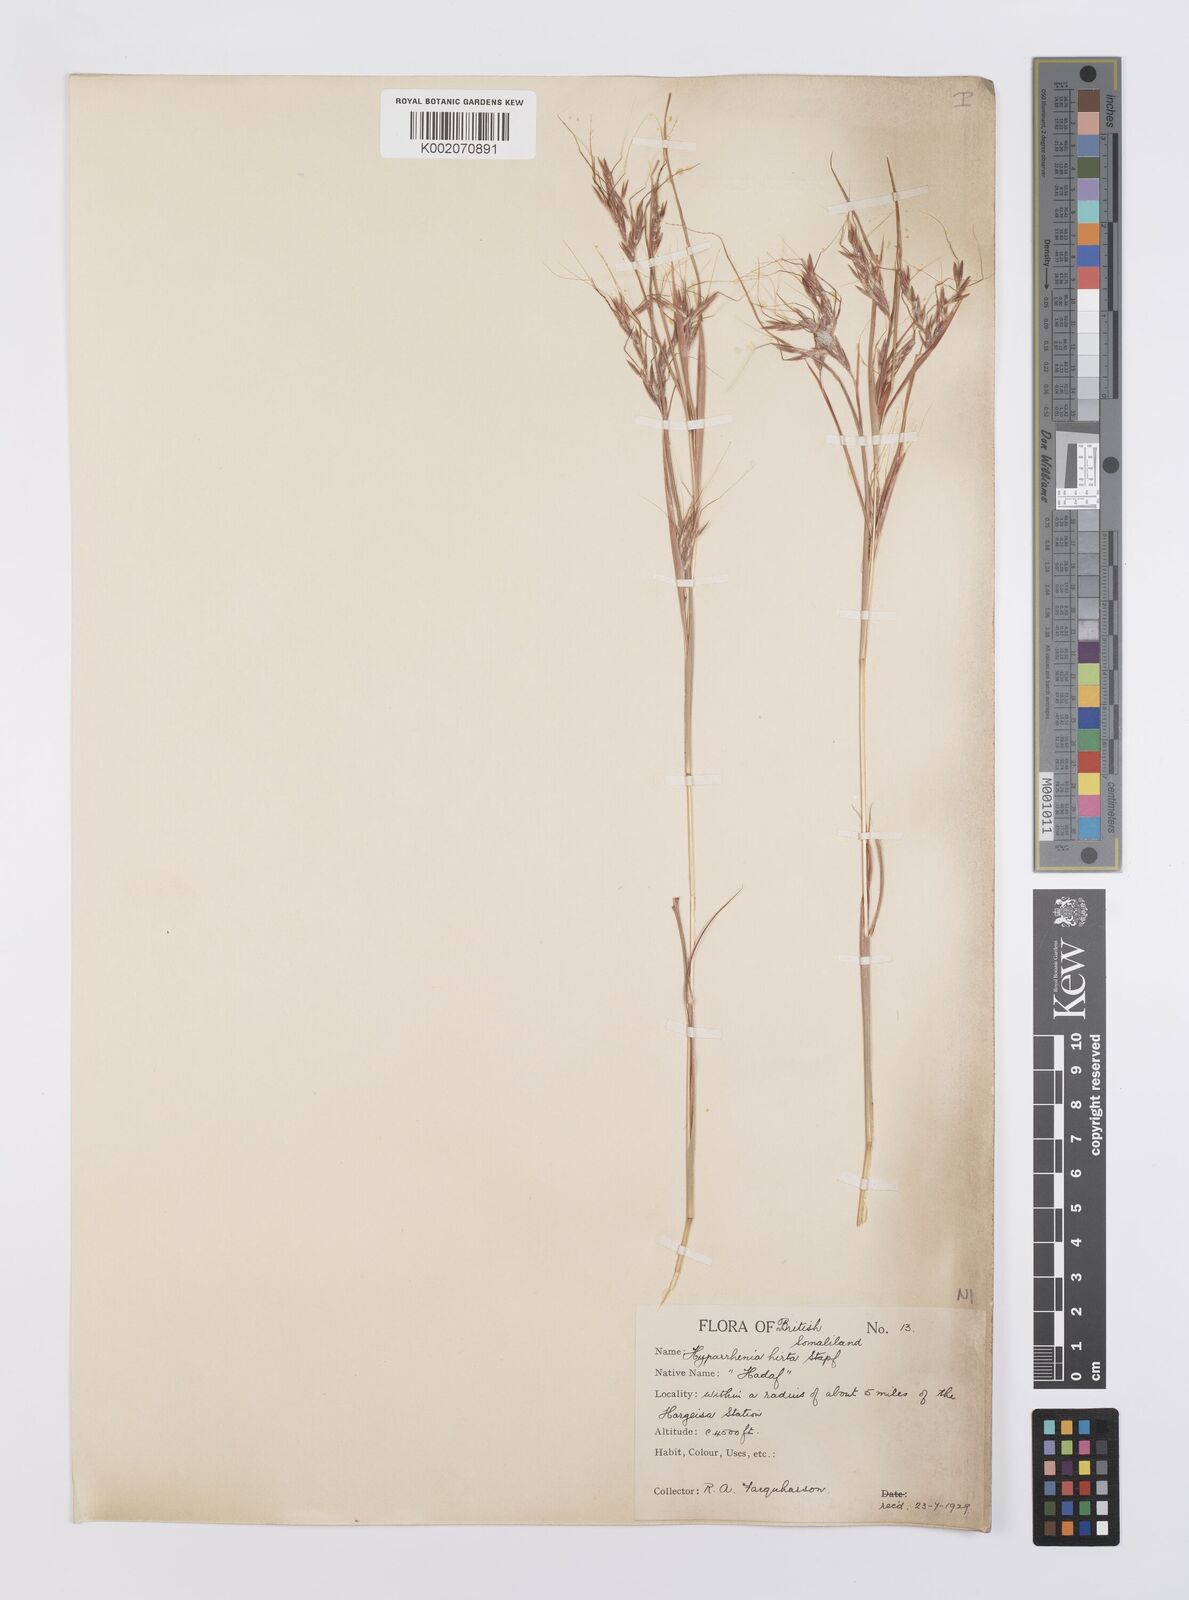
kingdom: Plantae
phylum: Tracheophyta
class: Liliopsida
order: Poales
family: Poaceae
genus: Hyparrhenia
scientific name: Hyparrhenia hirta
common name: Thatching grass
